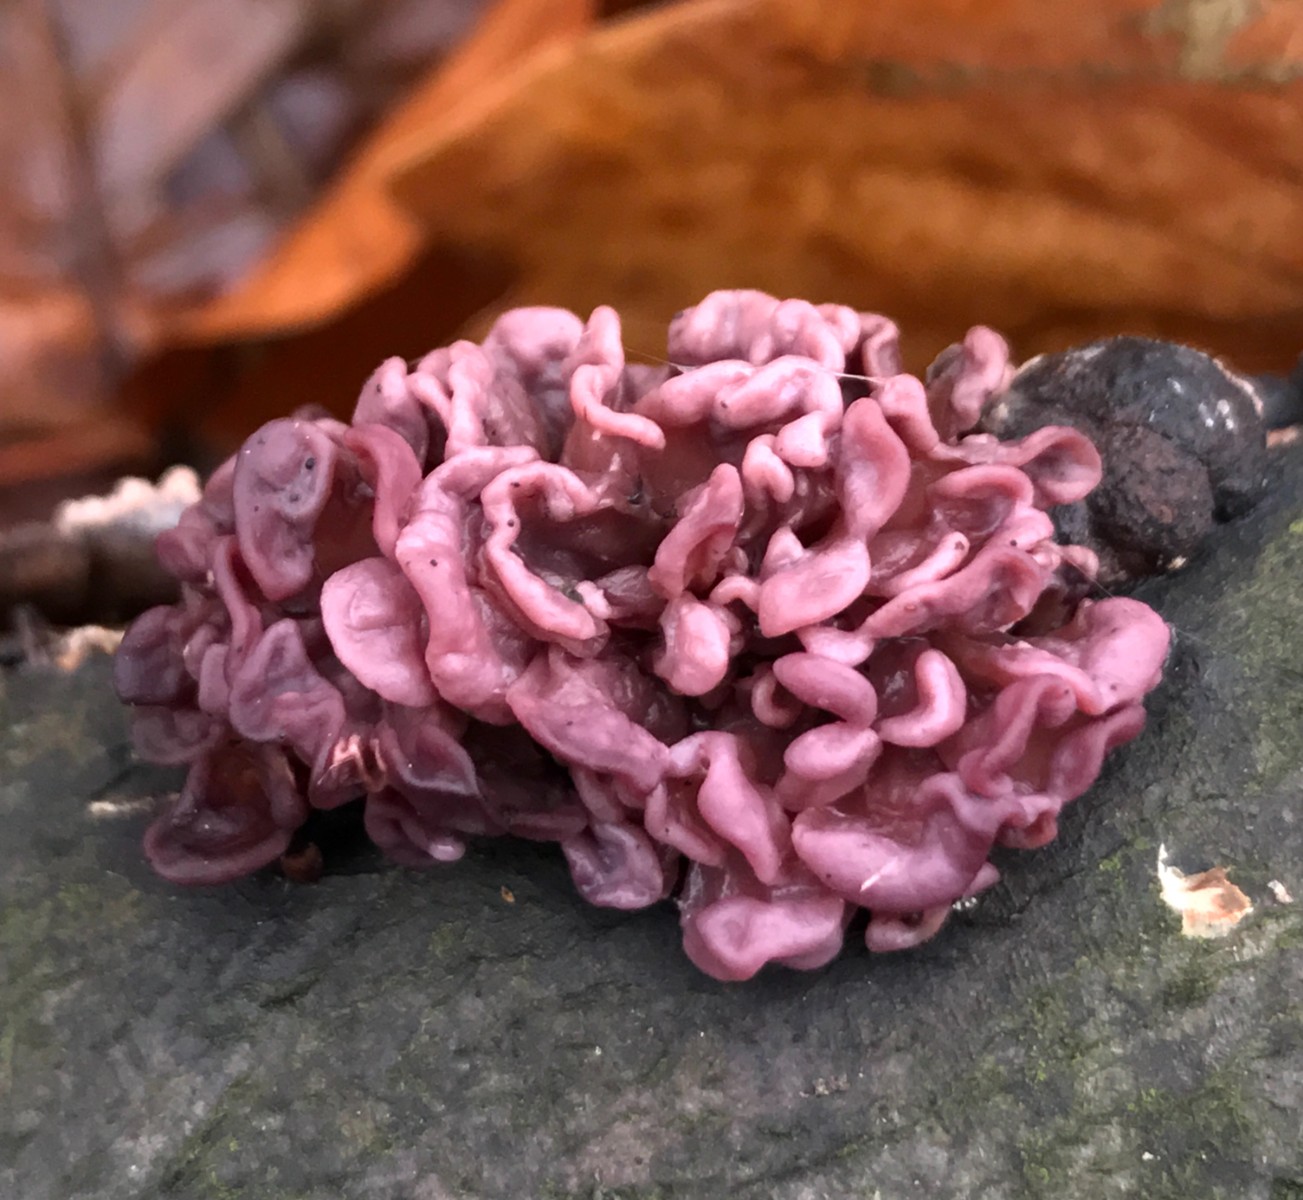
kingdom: Fungi
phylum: Ascomycota
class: Leotiomycetes
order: Helotiales
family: Gelatinodiscaceae
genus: Ascocoryne
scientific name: Ascocoryne sarcoides
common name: rødlilla sejskive
